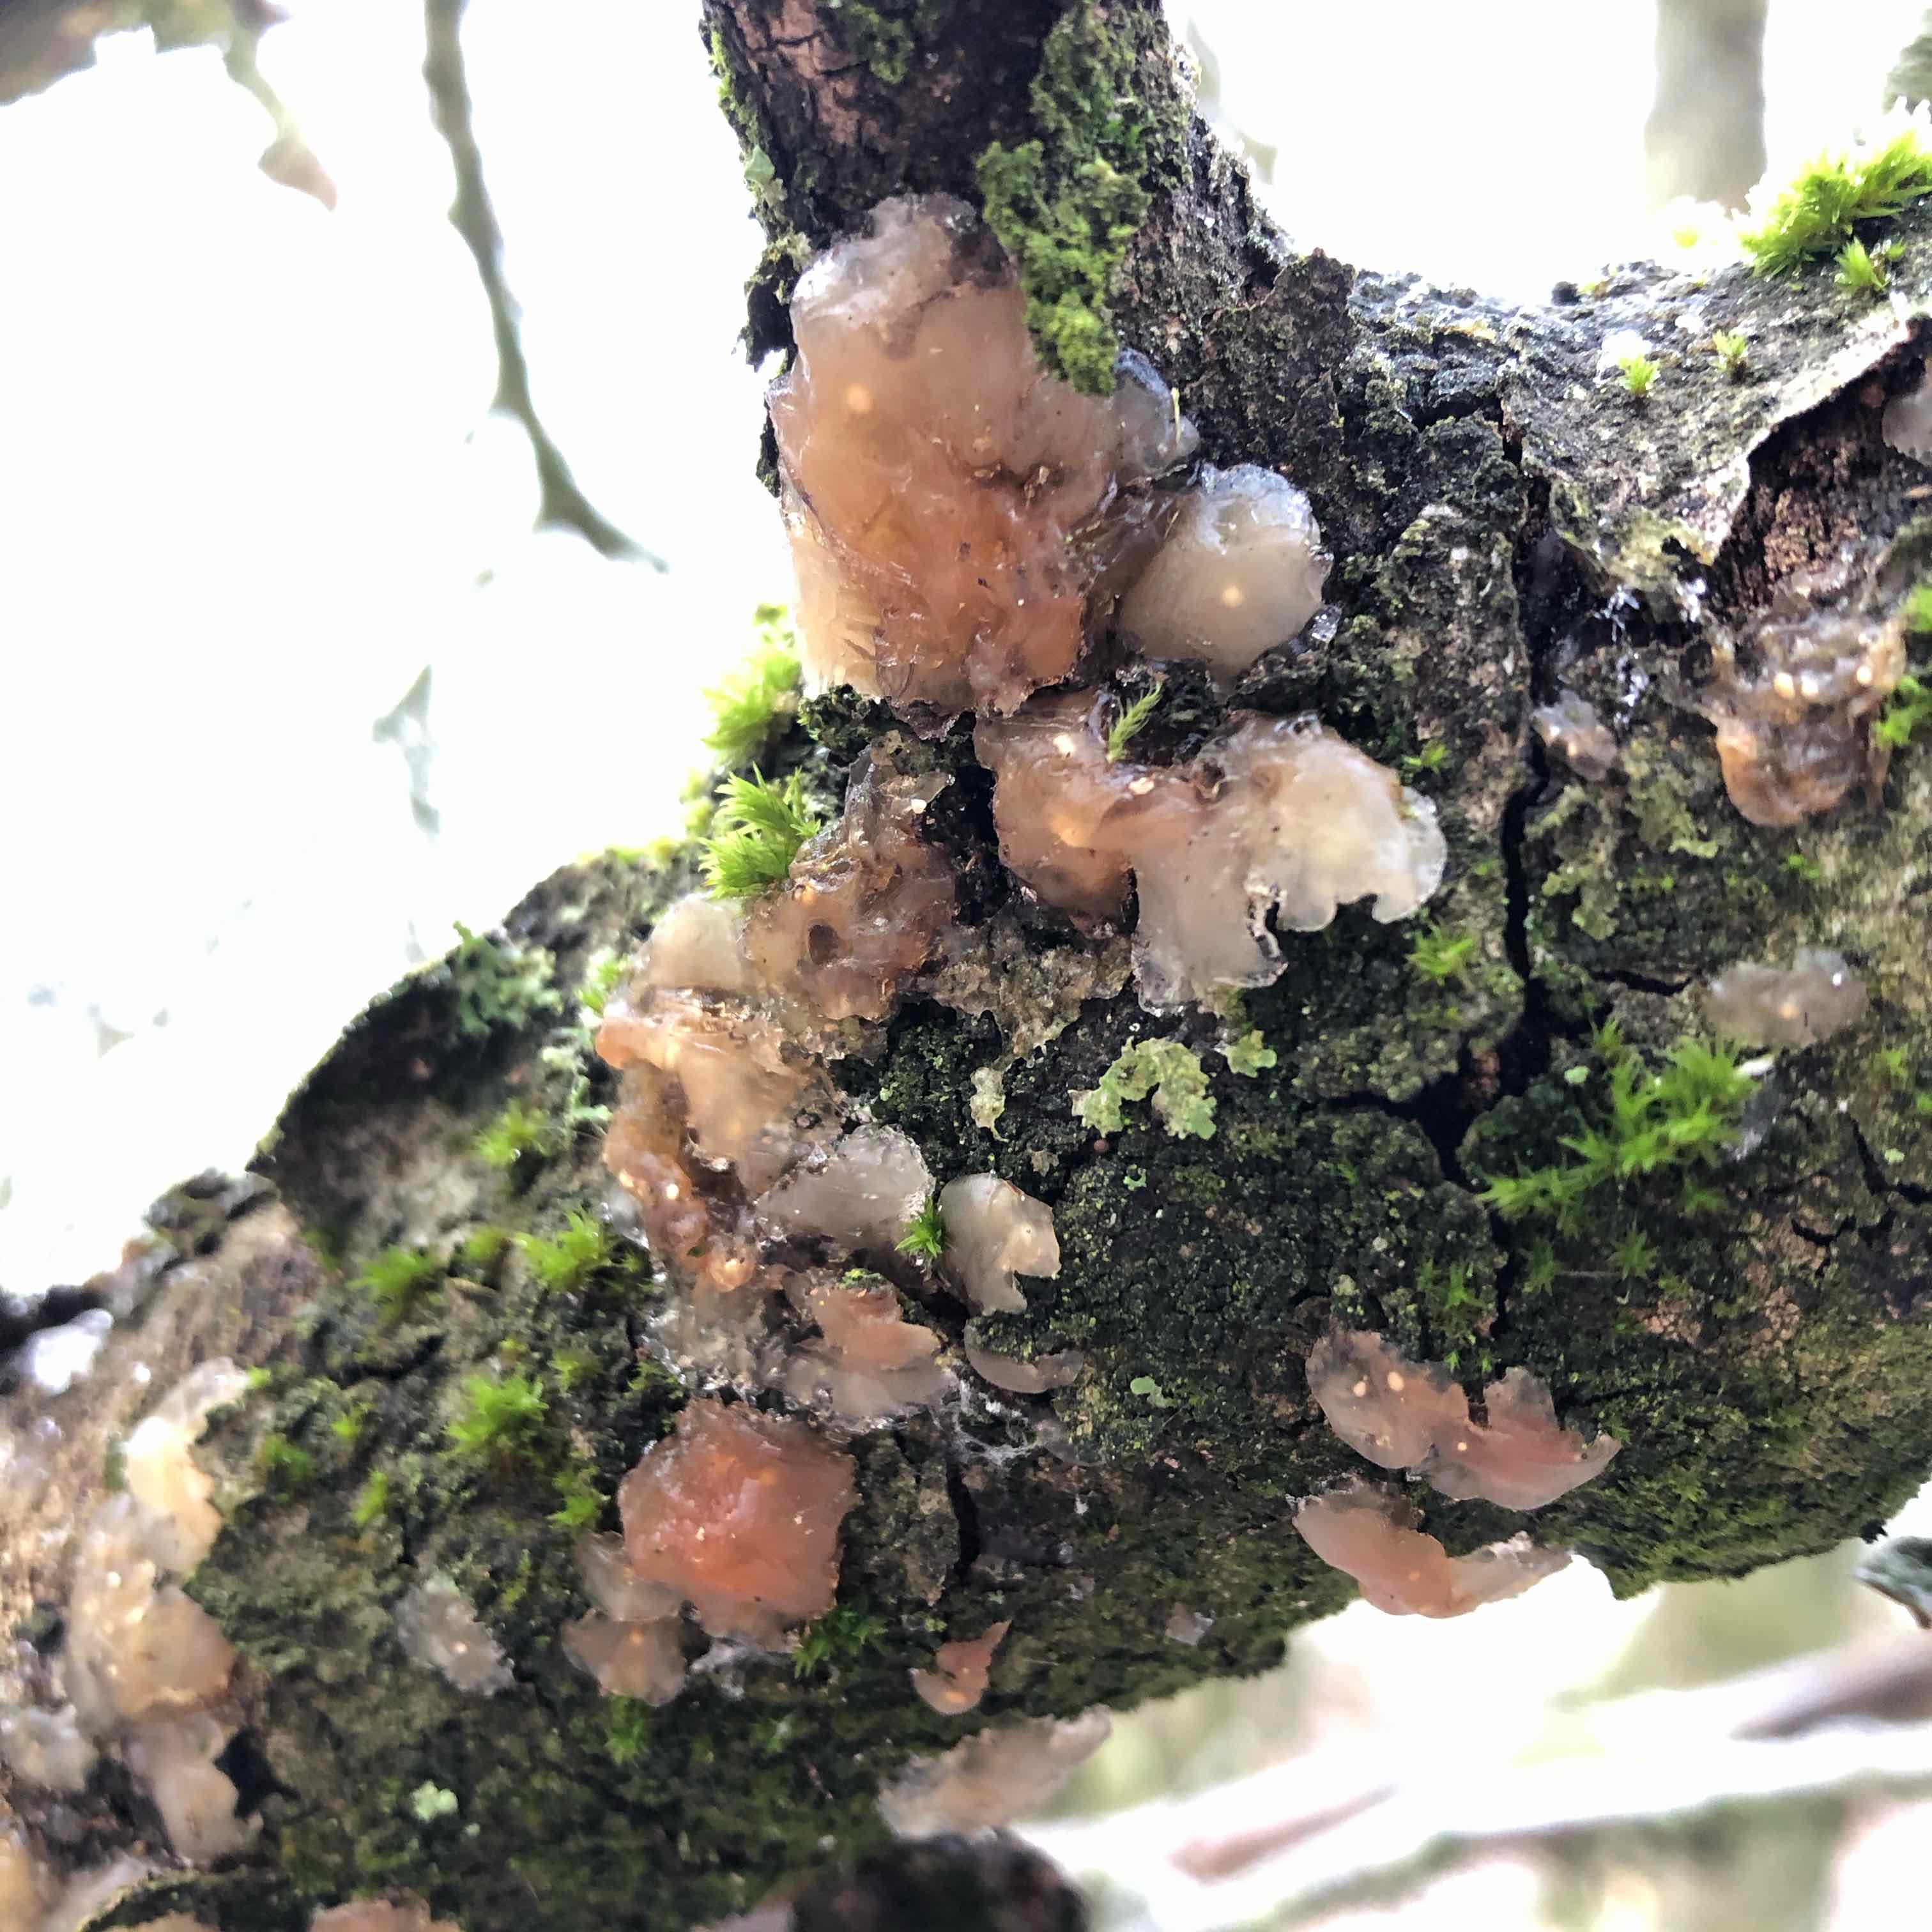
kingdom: Fungi
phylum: Basidiomycota
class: Agaricomycetes
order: Auriculariales
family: Hyaloriaceae
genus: Myxarium
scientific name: Myxarium hyalinum
